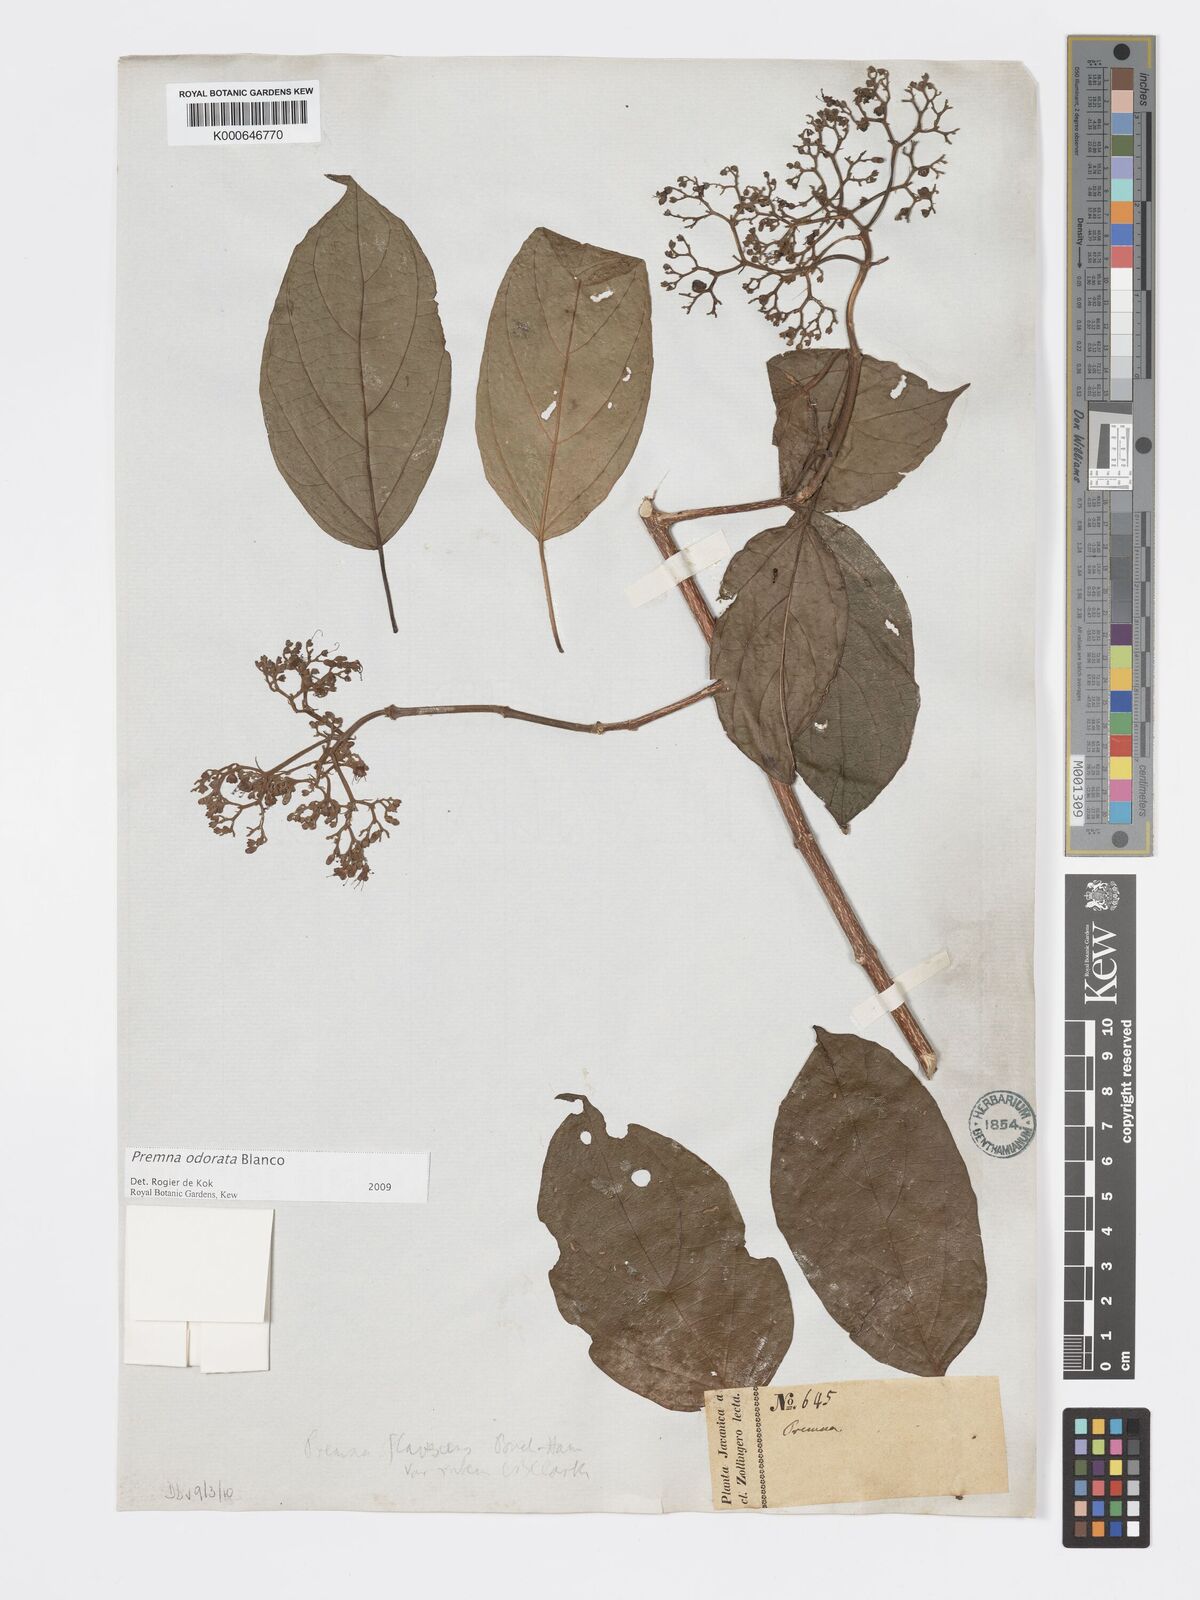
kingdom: Plantae
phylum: Tracheophyta
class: Magnoliopsida
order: Lamiales
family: Lamiaceae
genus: Premna
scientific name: Premna odorata
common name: Fragrant premna
